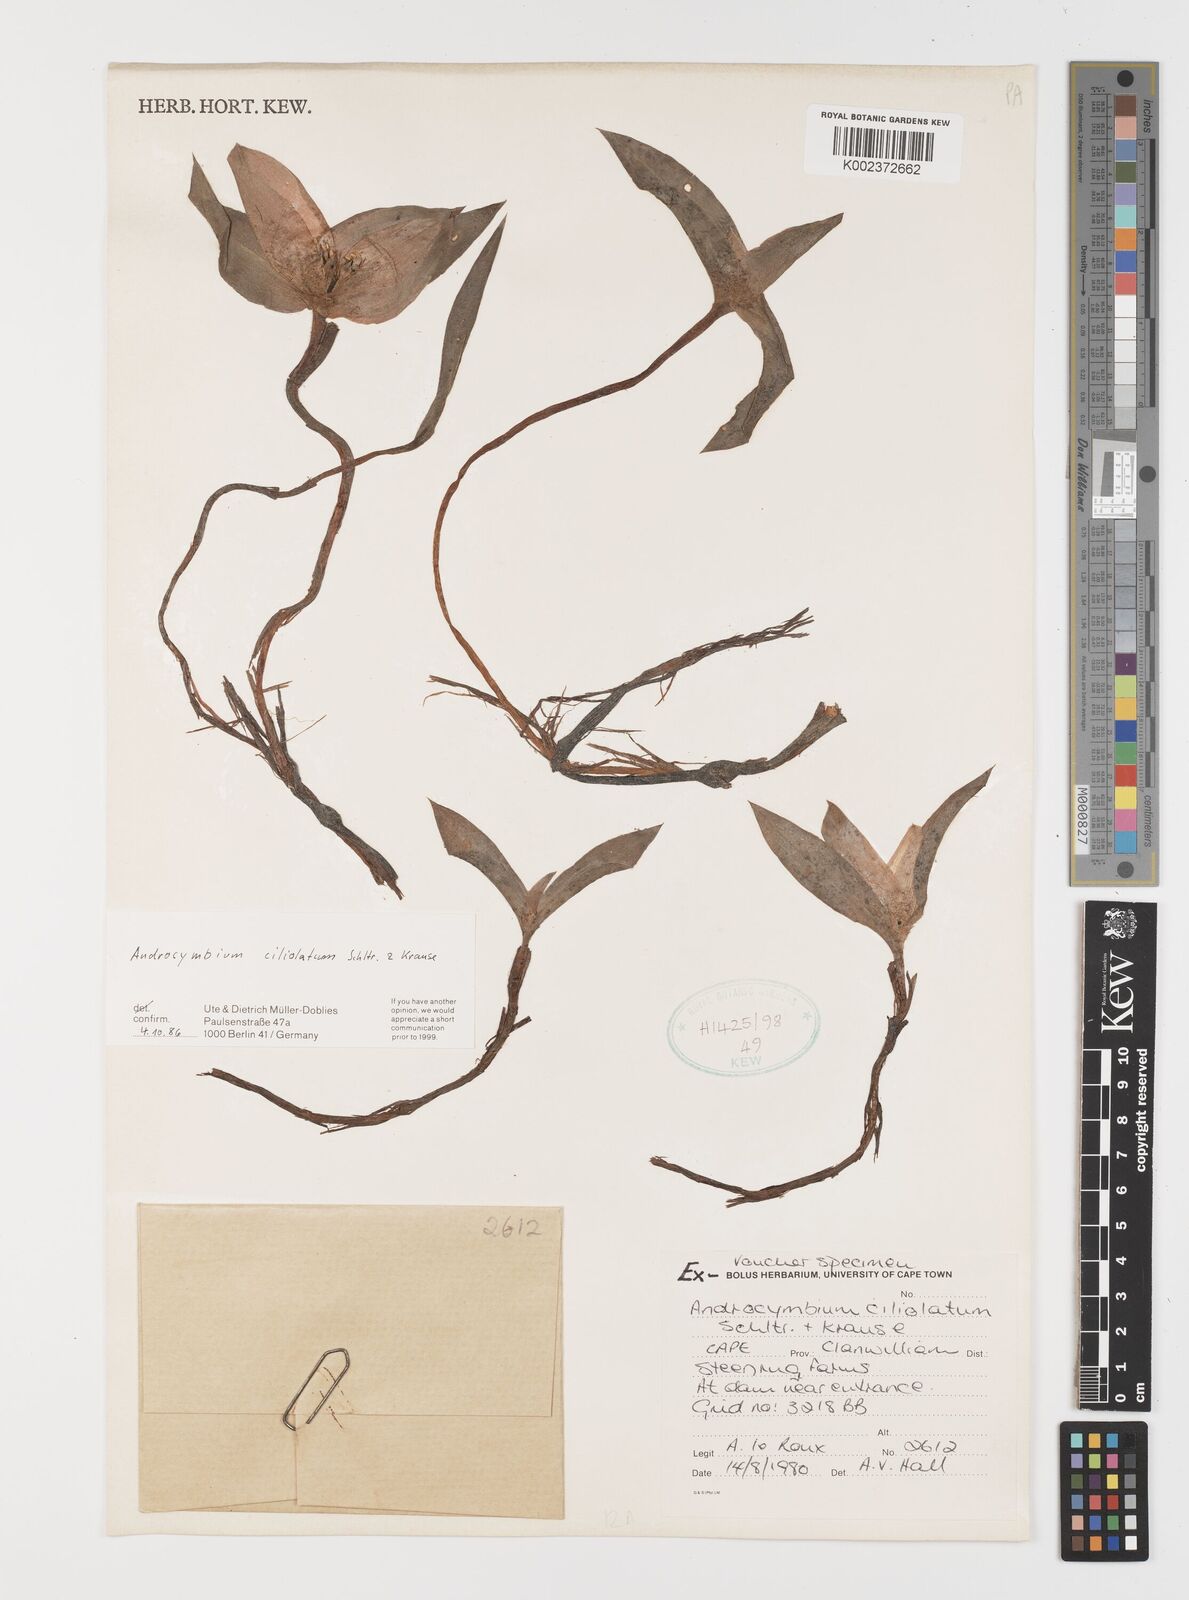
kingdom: Plantae
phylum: Tracheophyta
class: Liliopsida
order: Liliales
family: Colchicaceae
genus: Colchicum
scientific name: Colchicum capense
